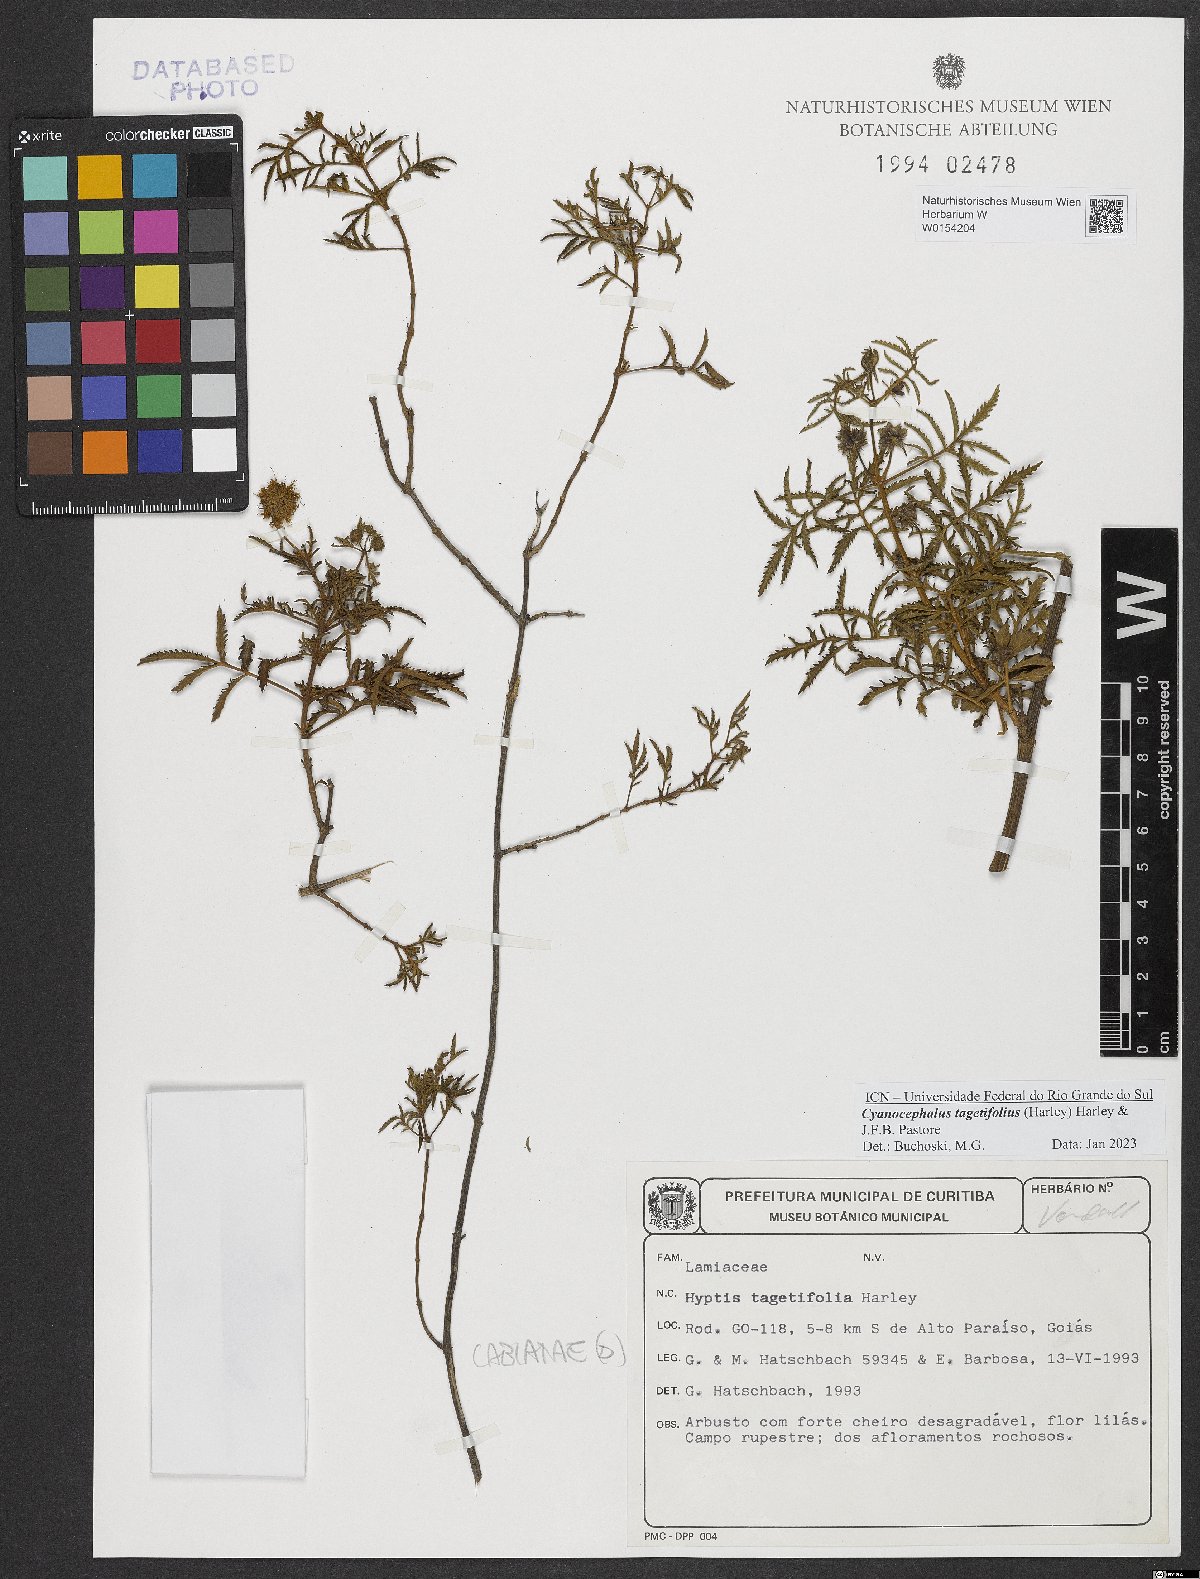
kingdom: Plantae
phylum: Tracheophyta
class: Magnoliopsida
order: Lamiales
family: Lamiaceae
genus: Cyanocephalus
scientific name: Cyanocephalus tagetifolius
